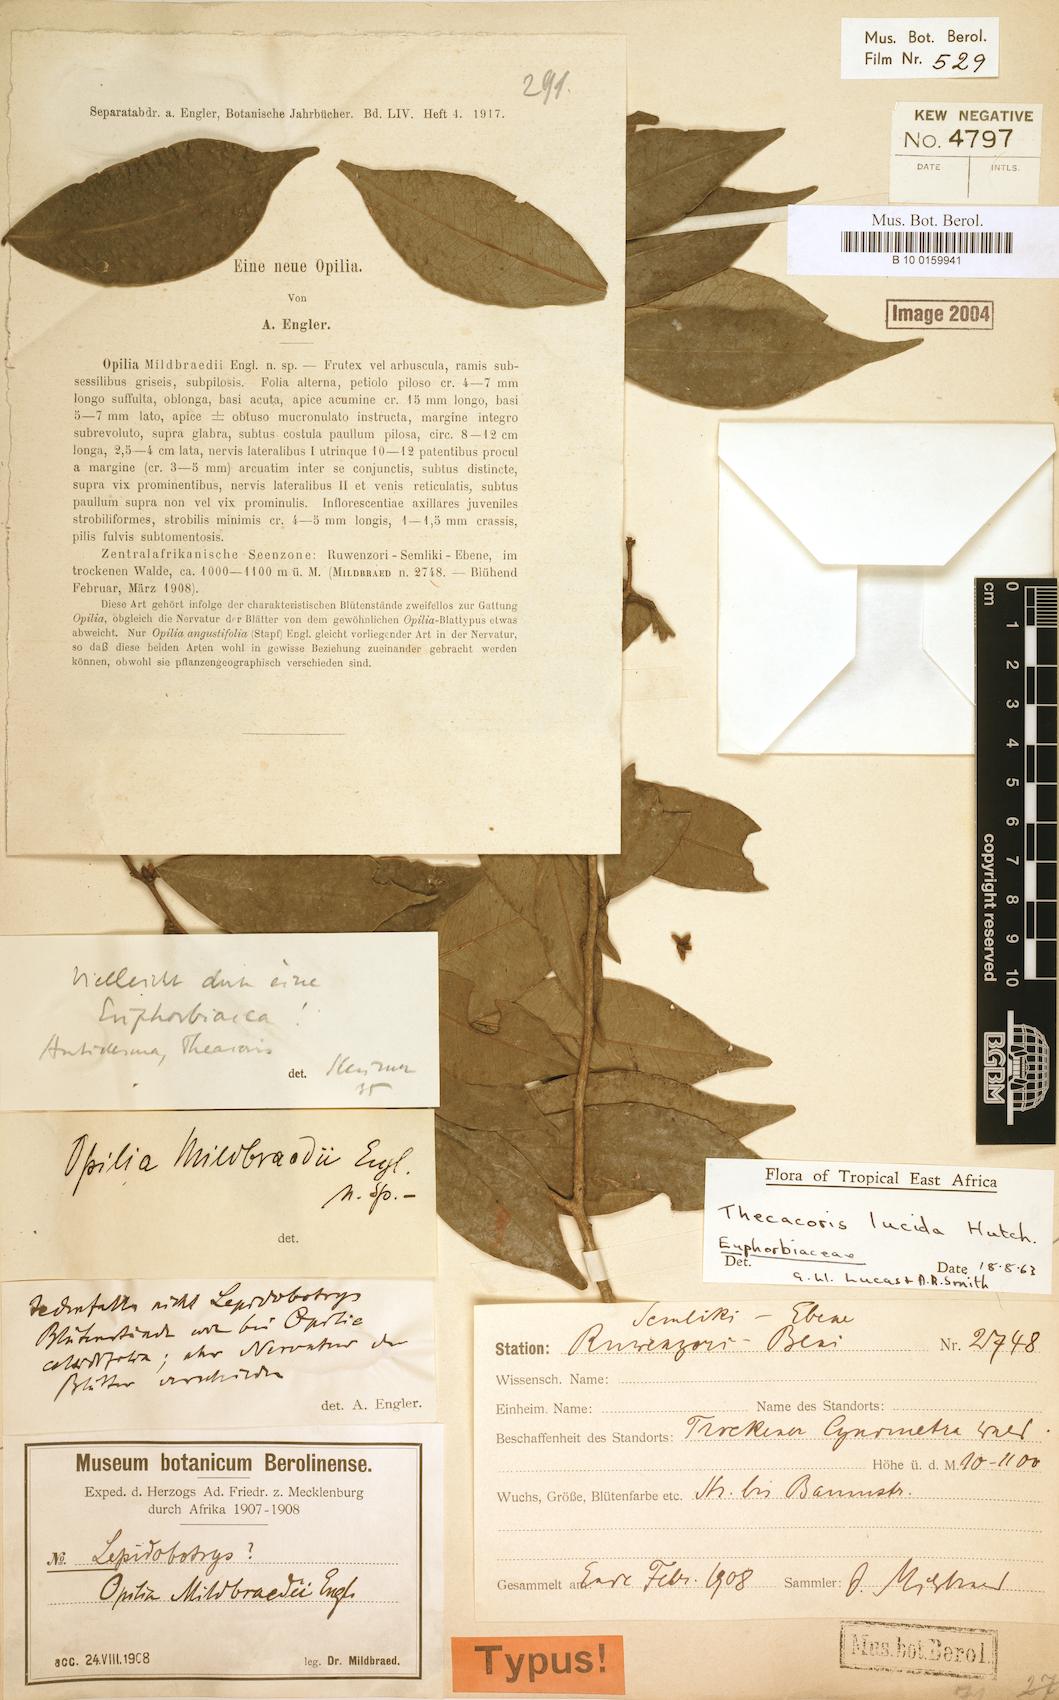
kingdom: Plantae
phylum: Tracheophyta
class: Magnoliopsida
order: Malpighiales
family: Phyllanthaceae
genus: Thecacoris
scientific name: Thecacoris lucida
